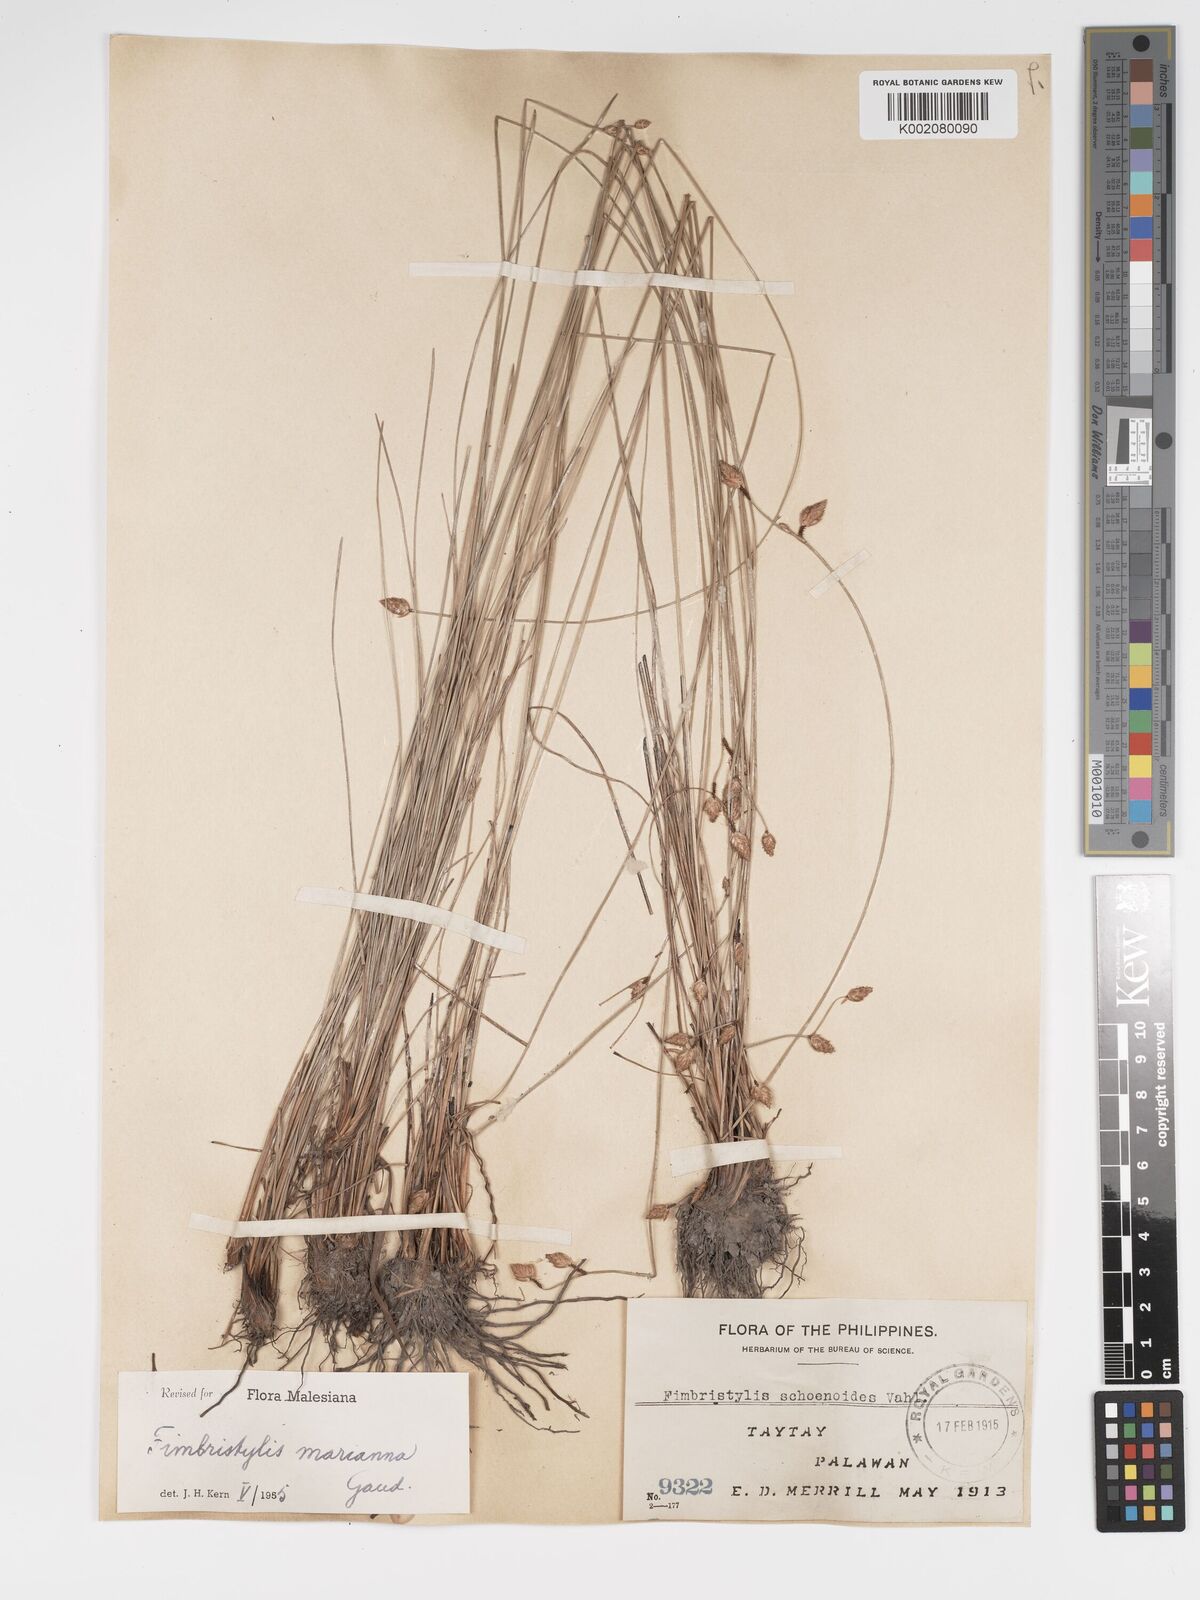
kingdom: Plantae
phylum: Tracheophyta
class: Liliopsida
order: Poales
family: Cyperaceae
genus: Fimbristylis
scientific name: Fimbristylis tristachya
